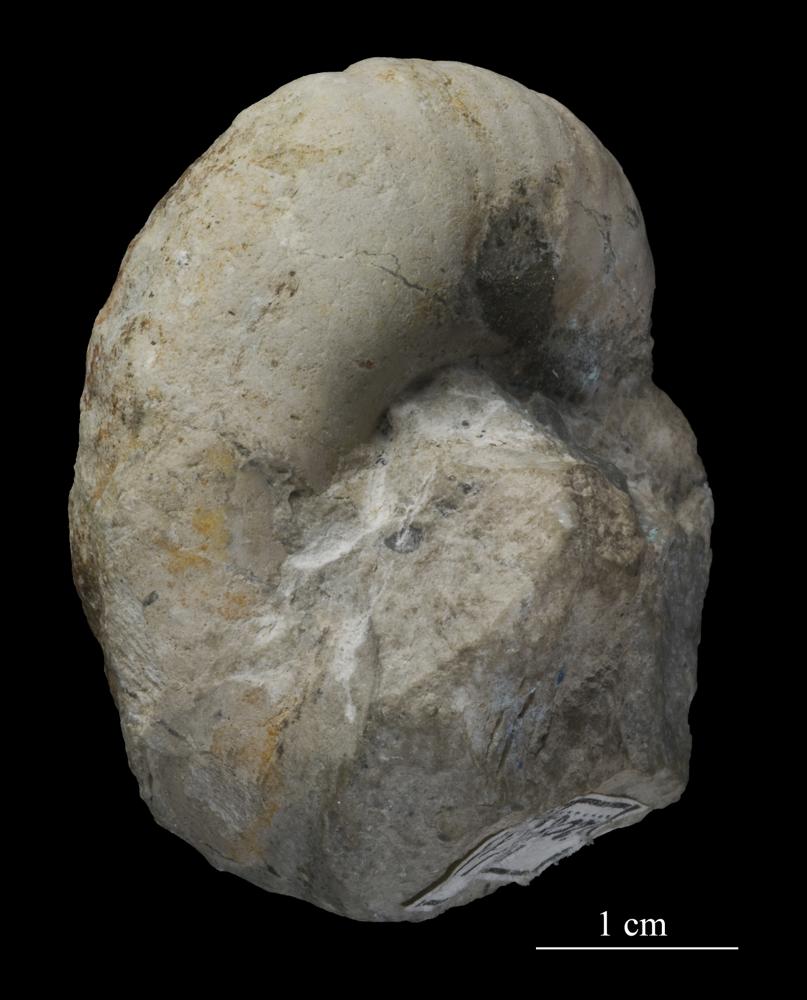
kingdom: Animalia
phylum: Mollusca
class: Gastropoda
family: Holopeidae
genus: Holopea
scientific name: Holopea inaequistriata
